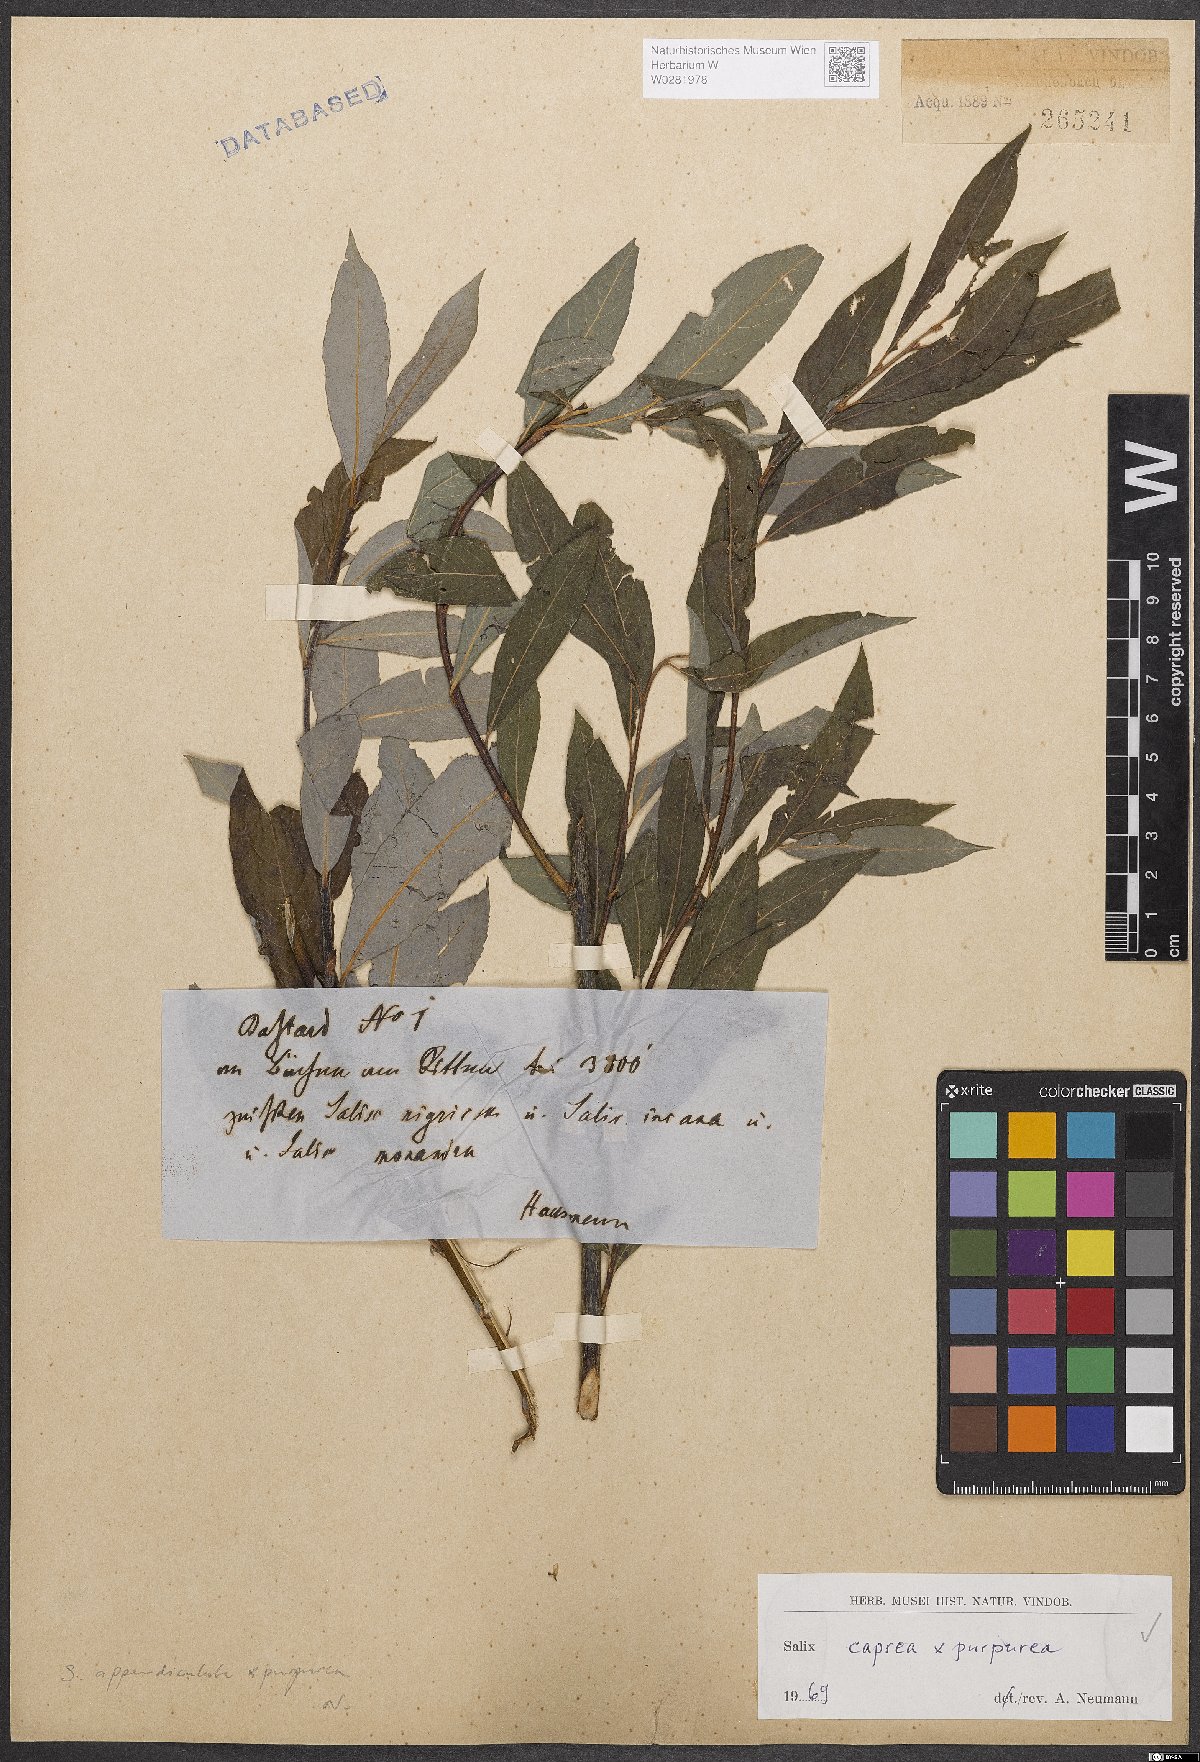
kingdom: Plantae
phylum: Tracheophyta
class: Magnoliopsida
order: Malpighiales
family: Salicaceae
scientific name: Salicaceae
